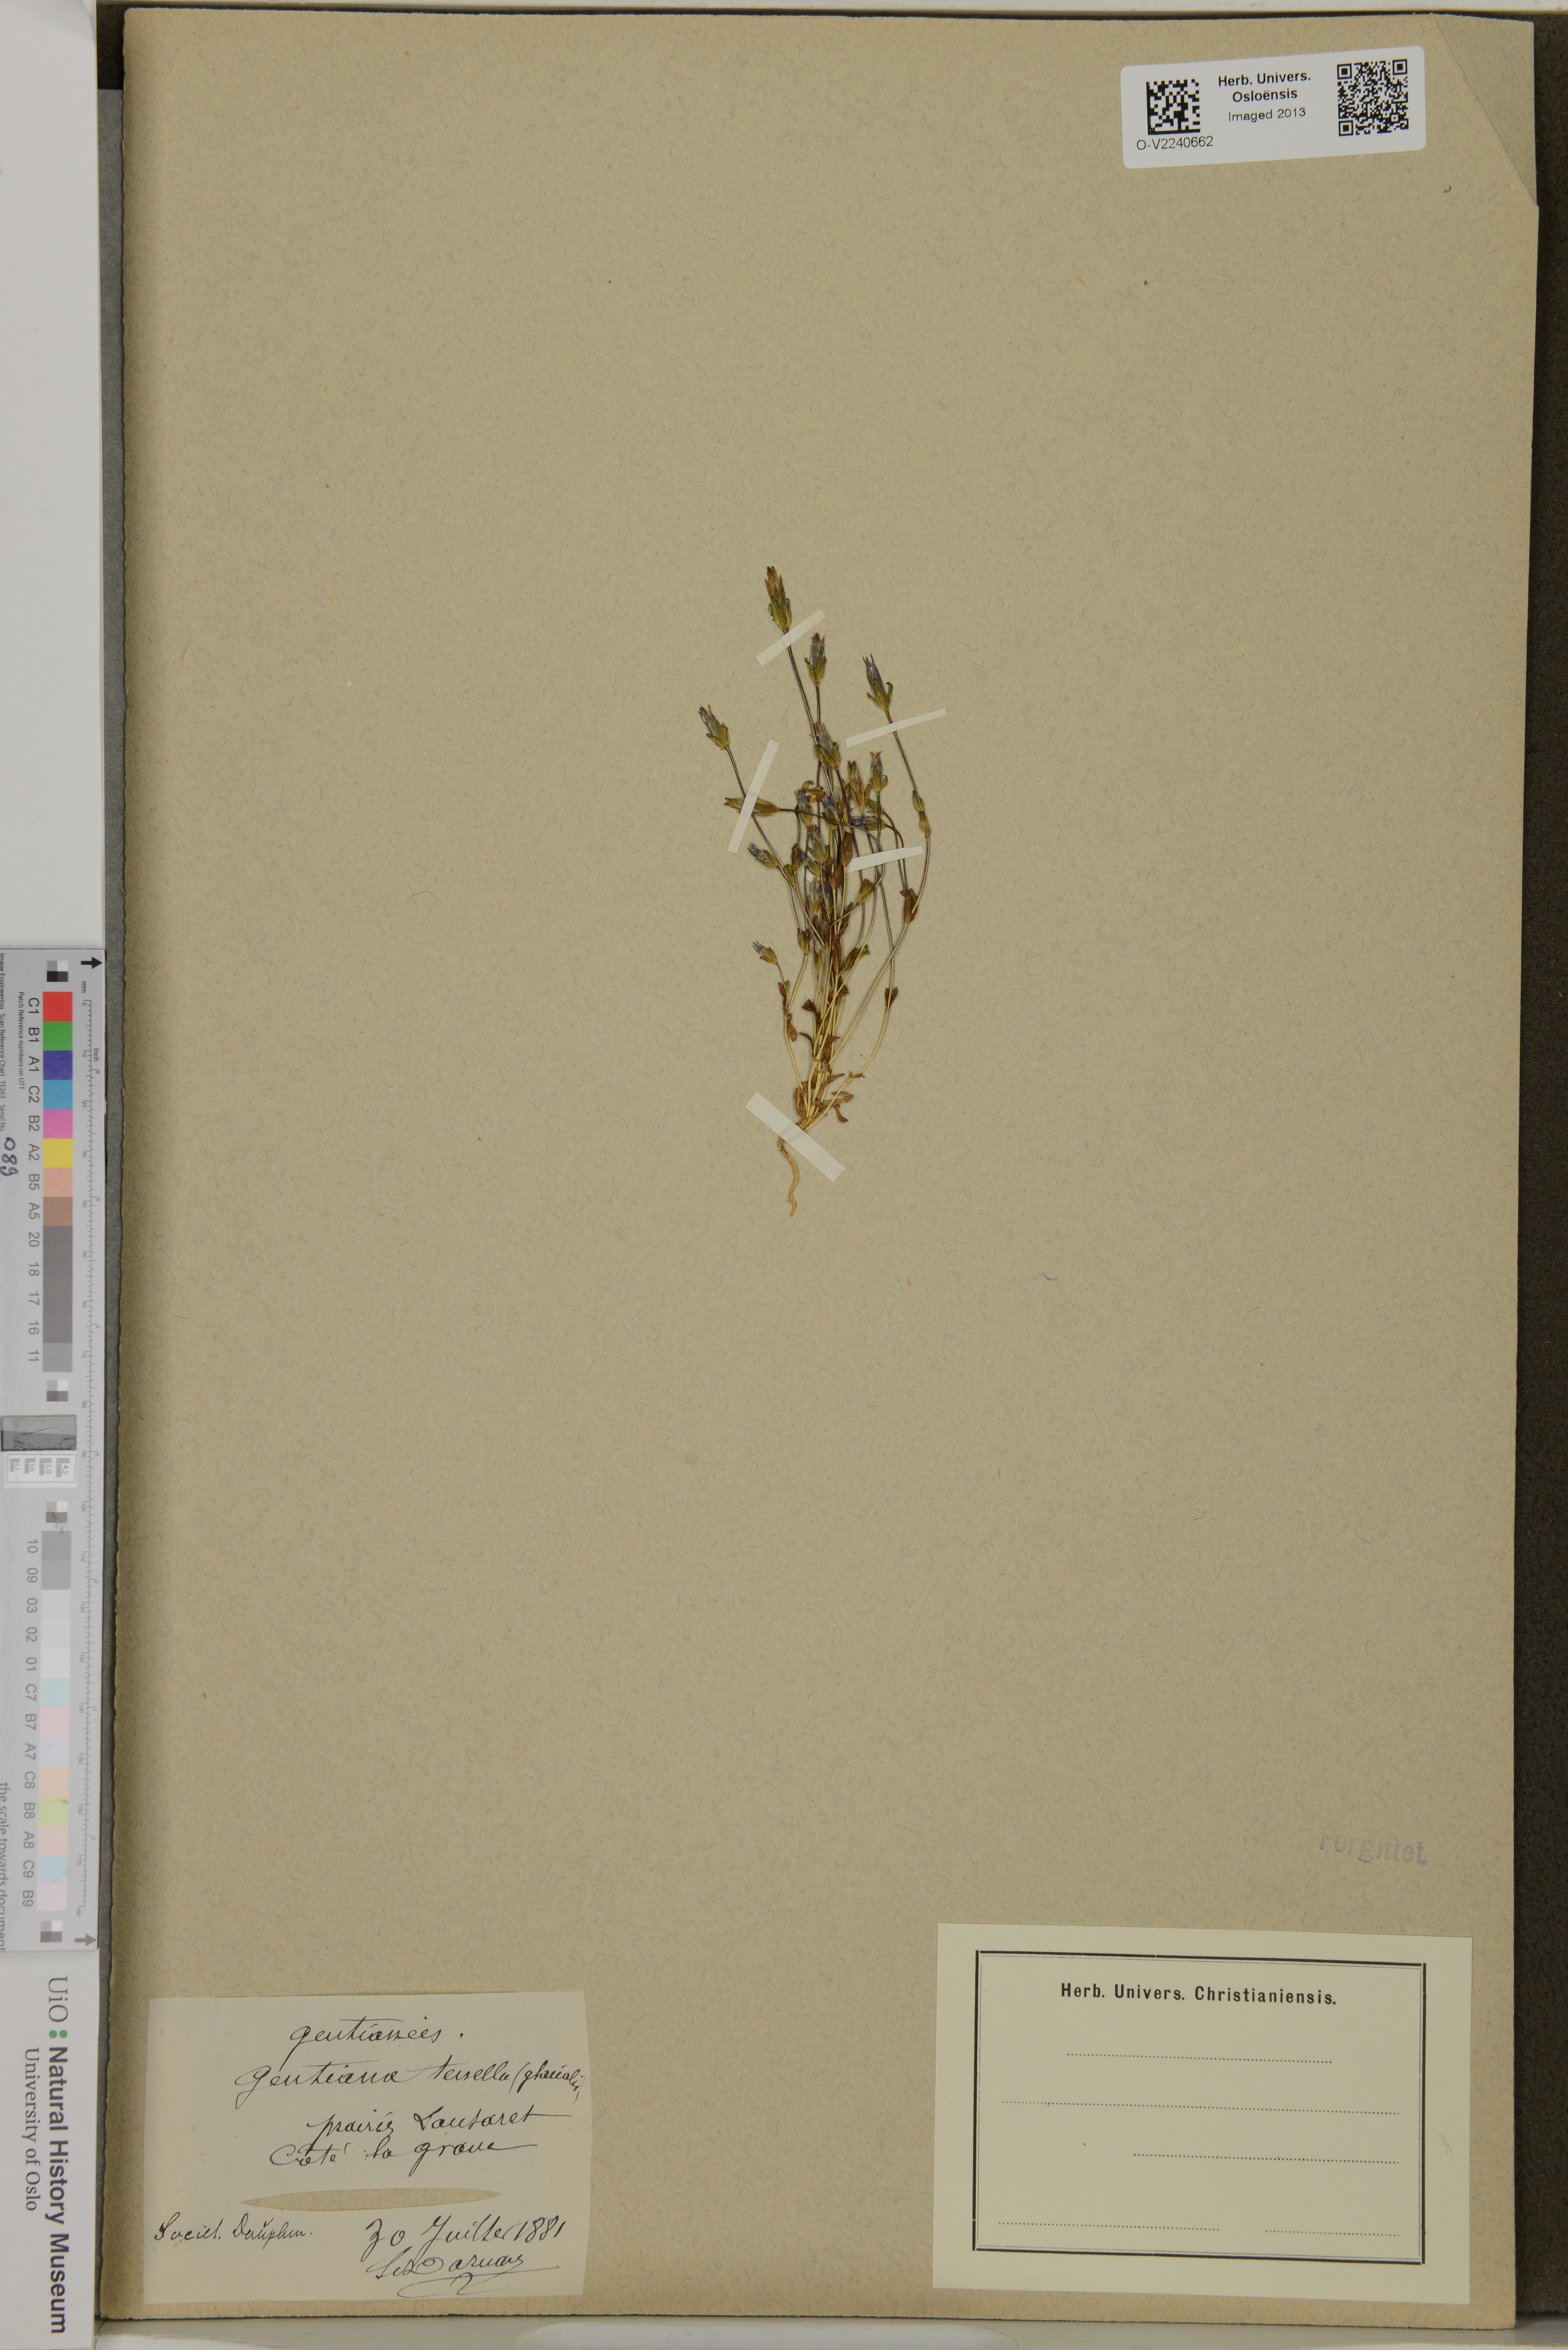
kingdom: Plantae
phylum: Tracheophyta
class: Magnoliopsida
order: Gentianales
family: Gentianaceae
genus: Comastoma
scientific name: Comastoma tenellum
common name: Dane's dwarf gentian
